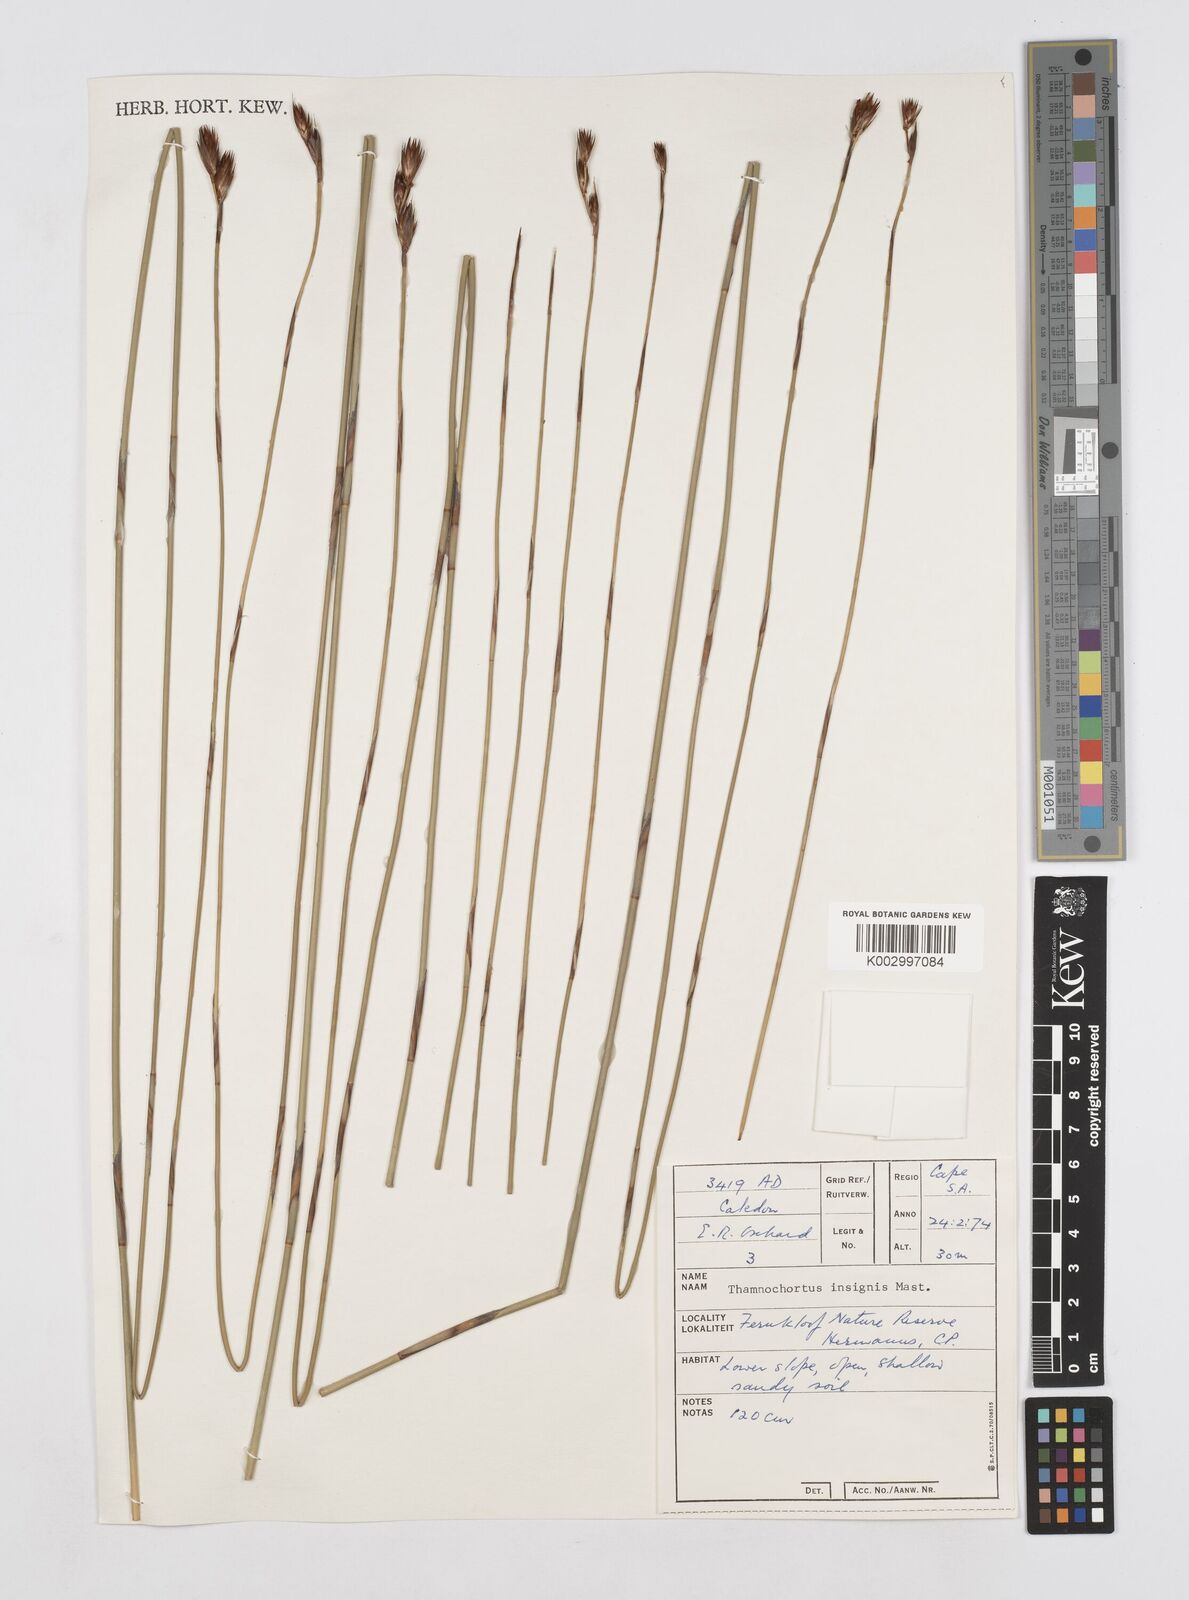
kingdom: Plantae
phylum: Tracheophyta
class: Liliopsida
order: Poales
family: Restionaceae
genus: Thamnochortus
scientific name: Thamnochortus insignis
